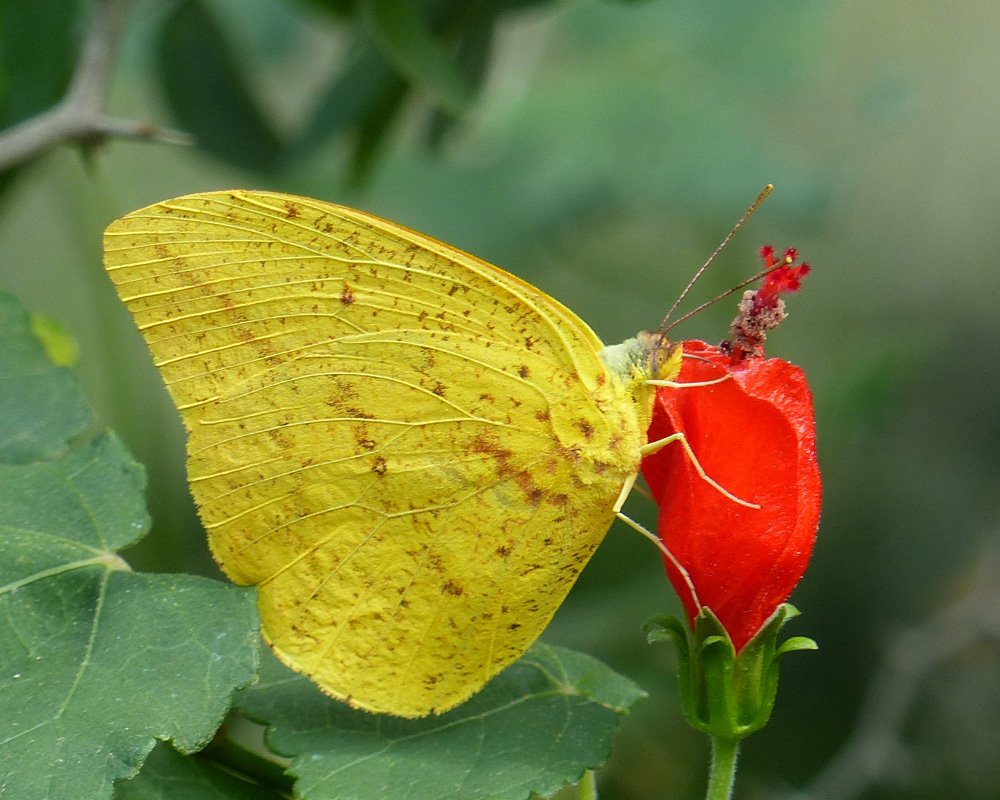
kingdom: Animalia
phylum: Arthropoda
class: Insecta
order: Lepidoptera
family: Pieridae
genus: Phoebis
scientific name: Phoebis agarithe
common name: Large Orange Sulphur
